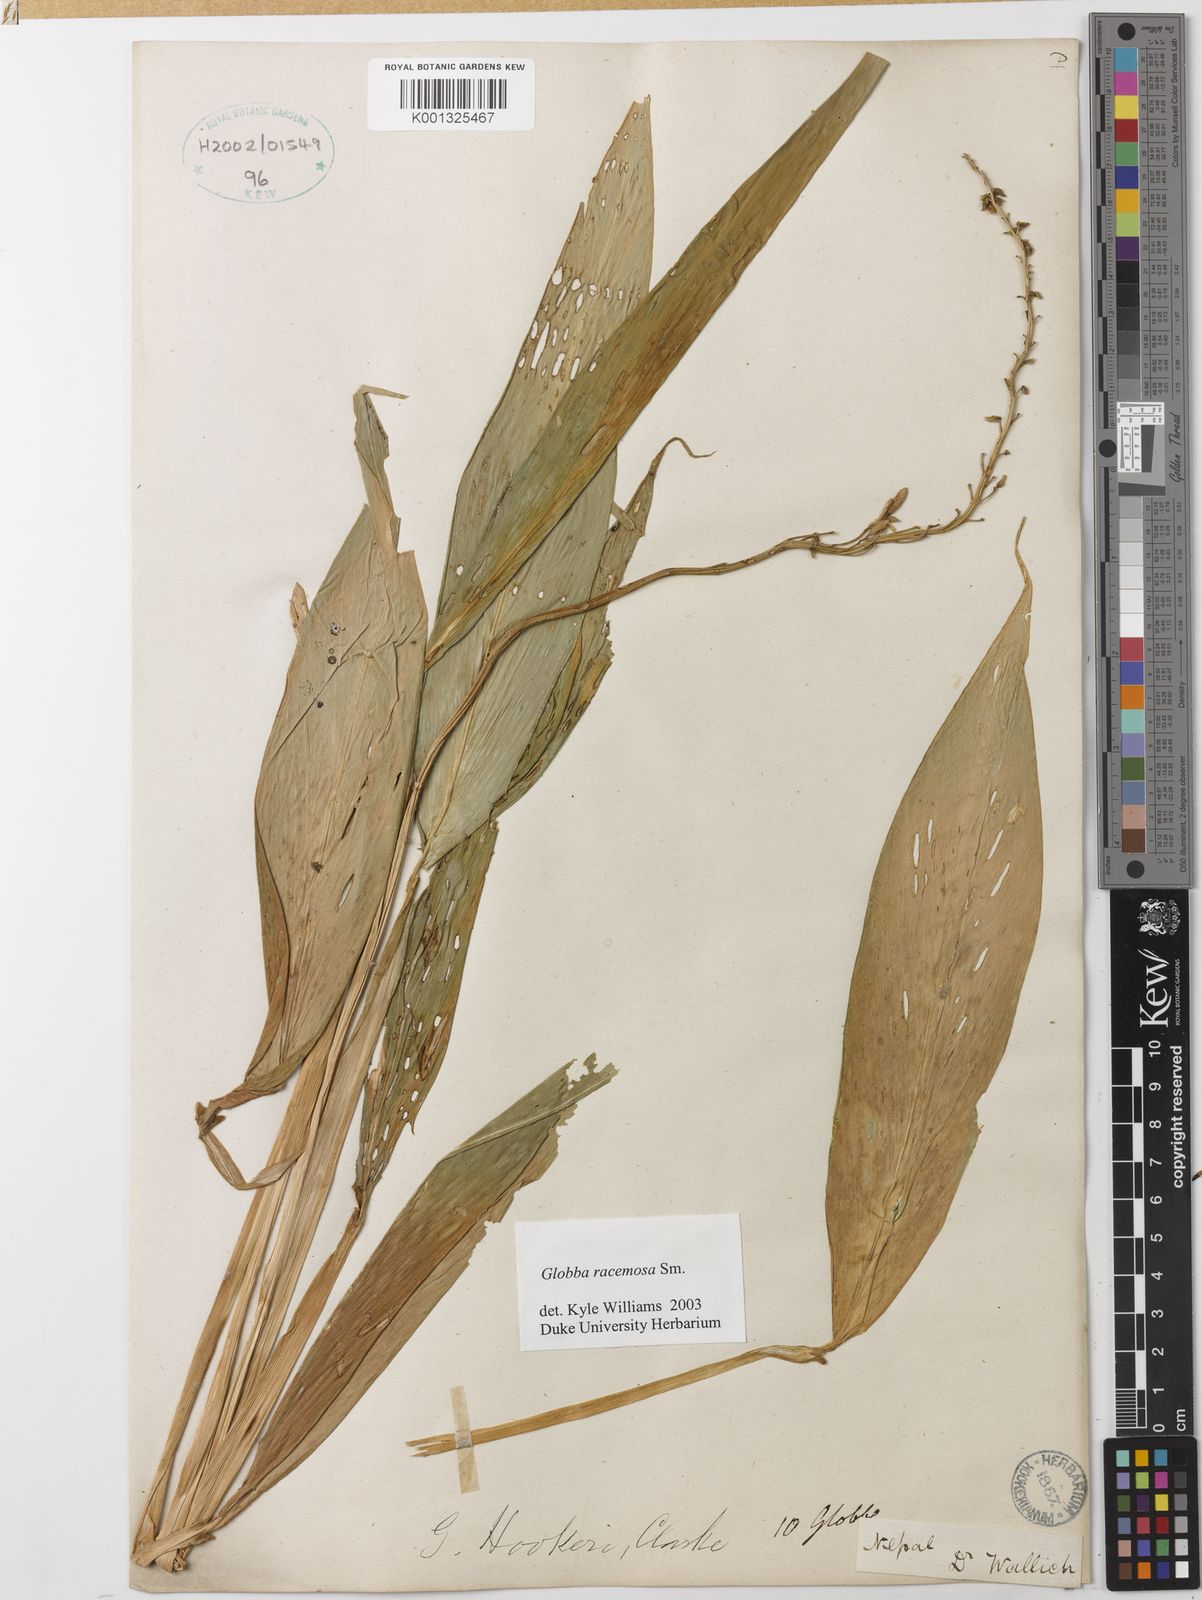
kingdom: Plantae
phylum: Tracheophyta
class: Liliopsida
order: Zingiberales
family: Zingiberaceae
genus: Globba
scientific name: Globba racemosa
